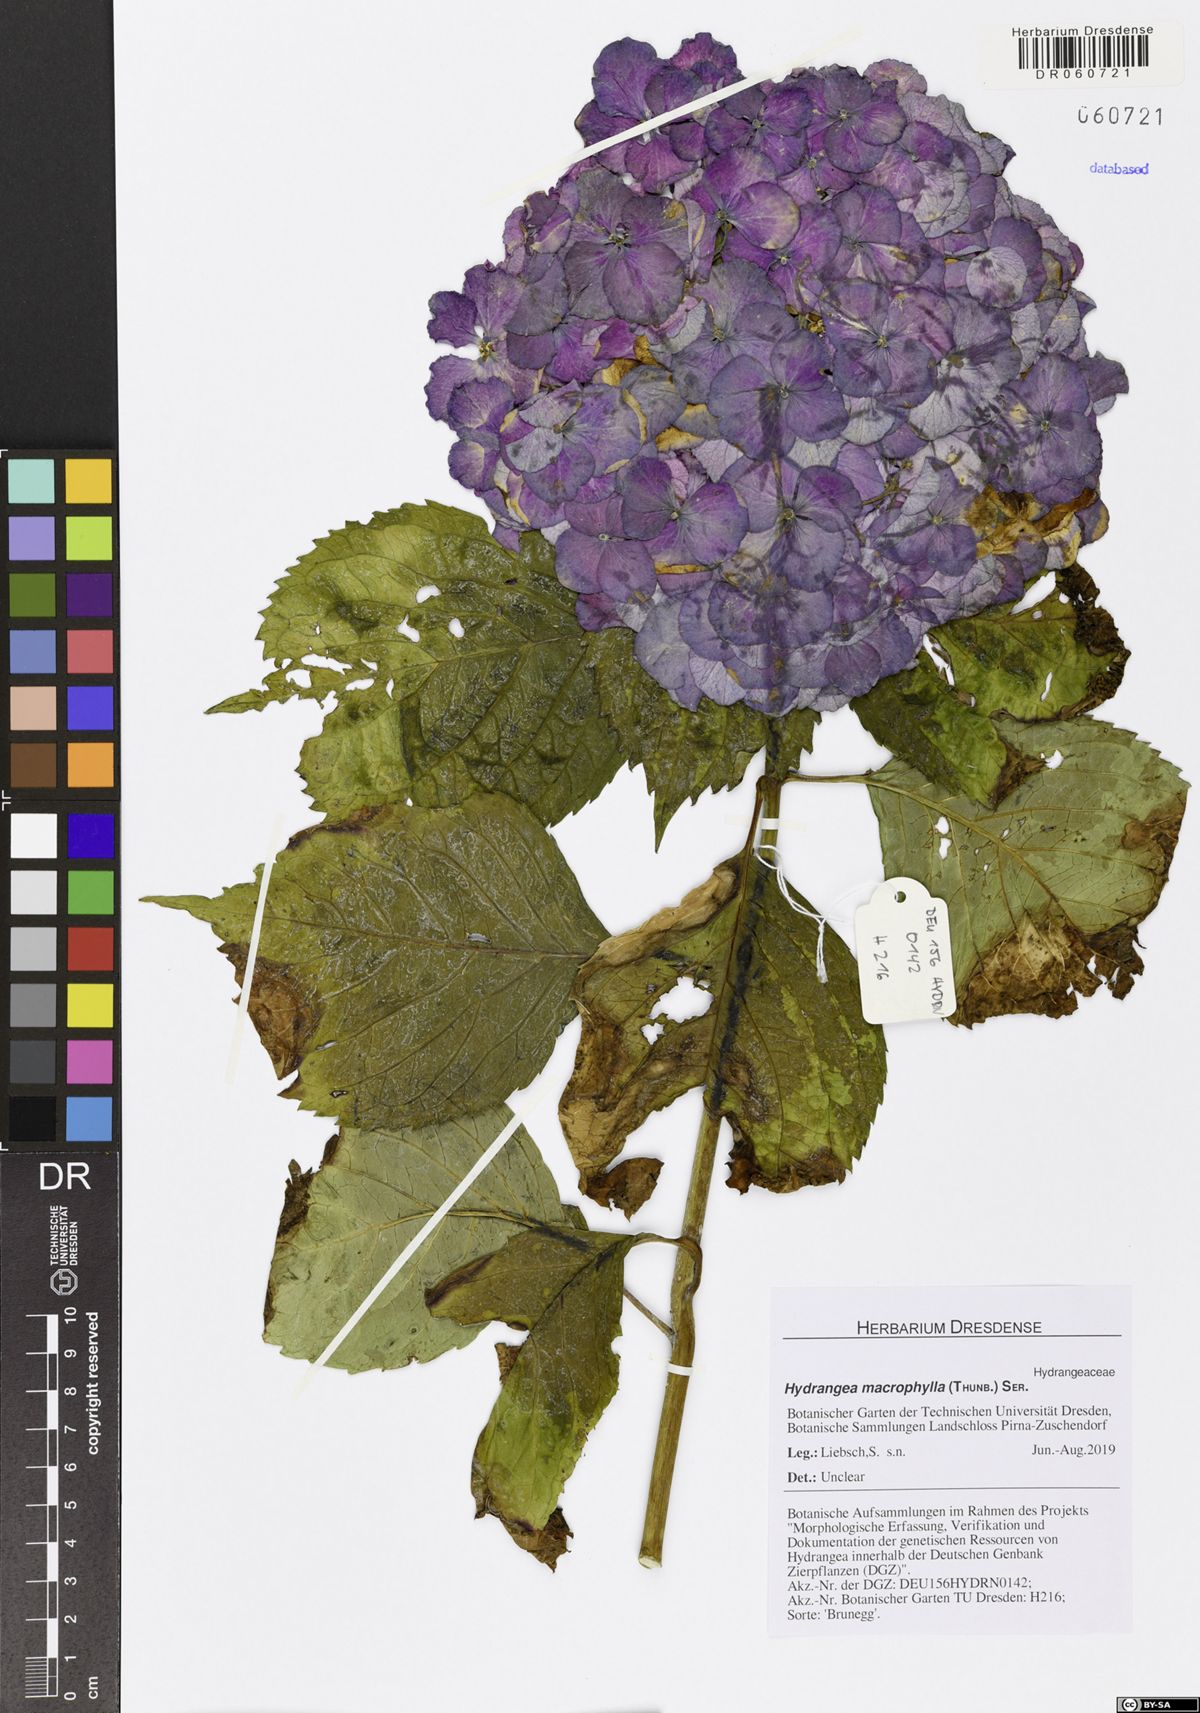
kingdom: Plantae
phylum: Tracheophyta
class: Magnoliopsida
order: Cornales
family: Hydrangeaceae
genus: Hydrangea
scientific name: Hydrangea macrophylla
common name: Hydrangea
